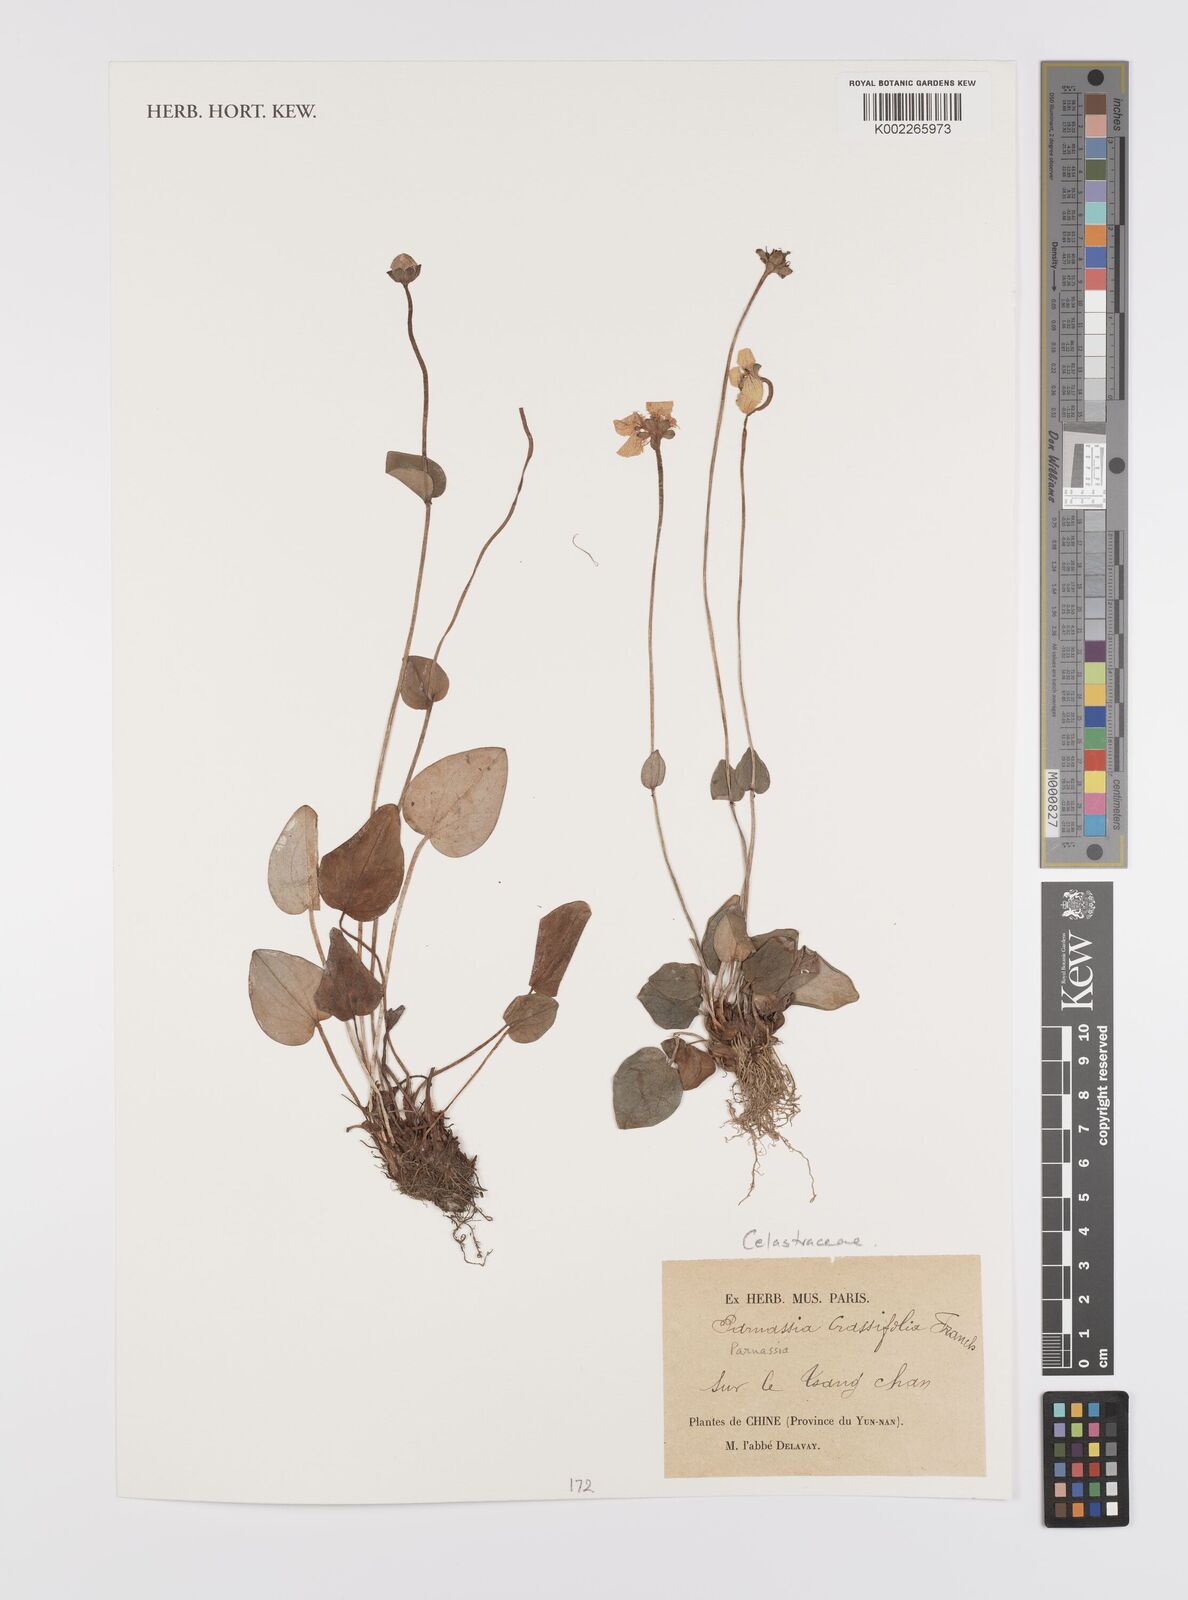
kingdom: Plantae
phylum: Tracheophyta
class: Magnoliopsida
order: Celastrales
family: Parnassiaceae
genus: Parnassia
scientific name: Parnassia crassifolia
